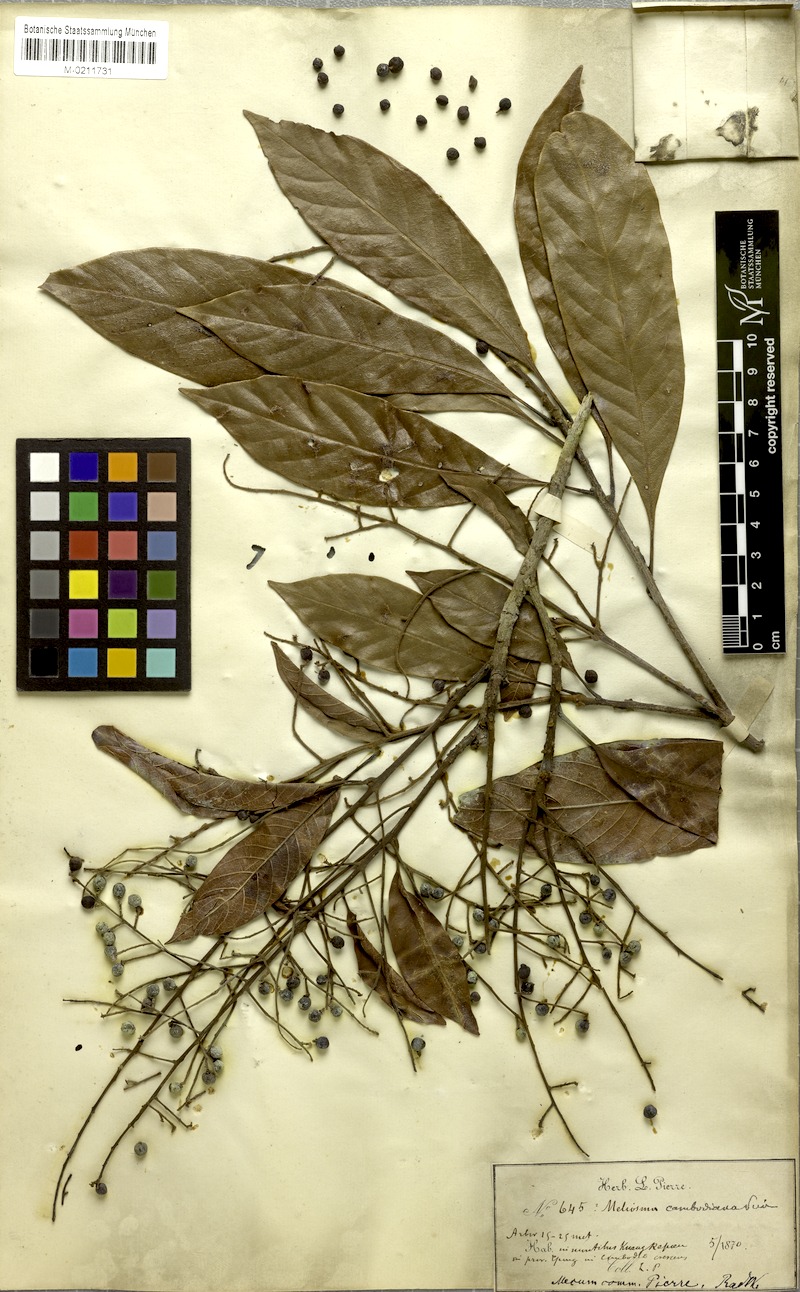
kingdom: Plantae
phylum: Tracheophyta
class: Magnoliopsida
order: Proteales
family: Sabiaceae
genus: Meliosma
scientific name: Meliosma fordii
